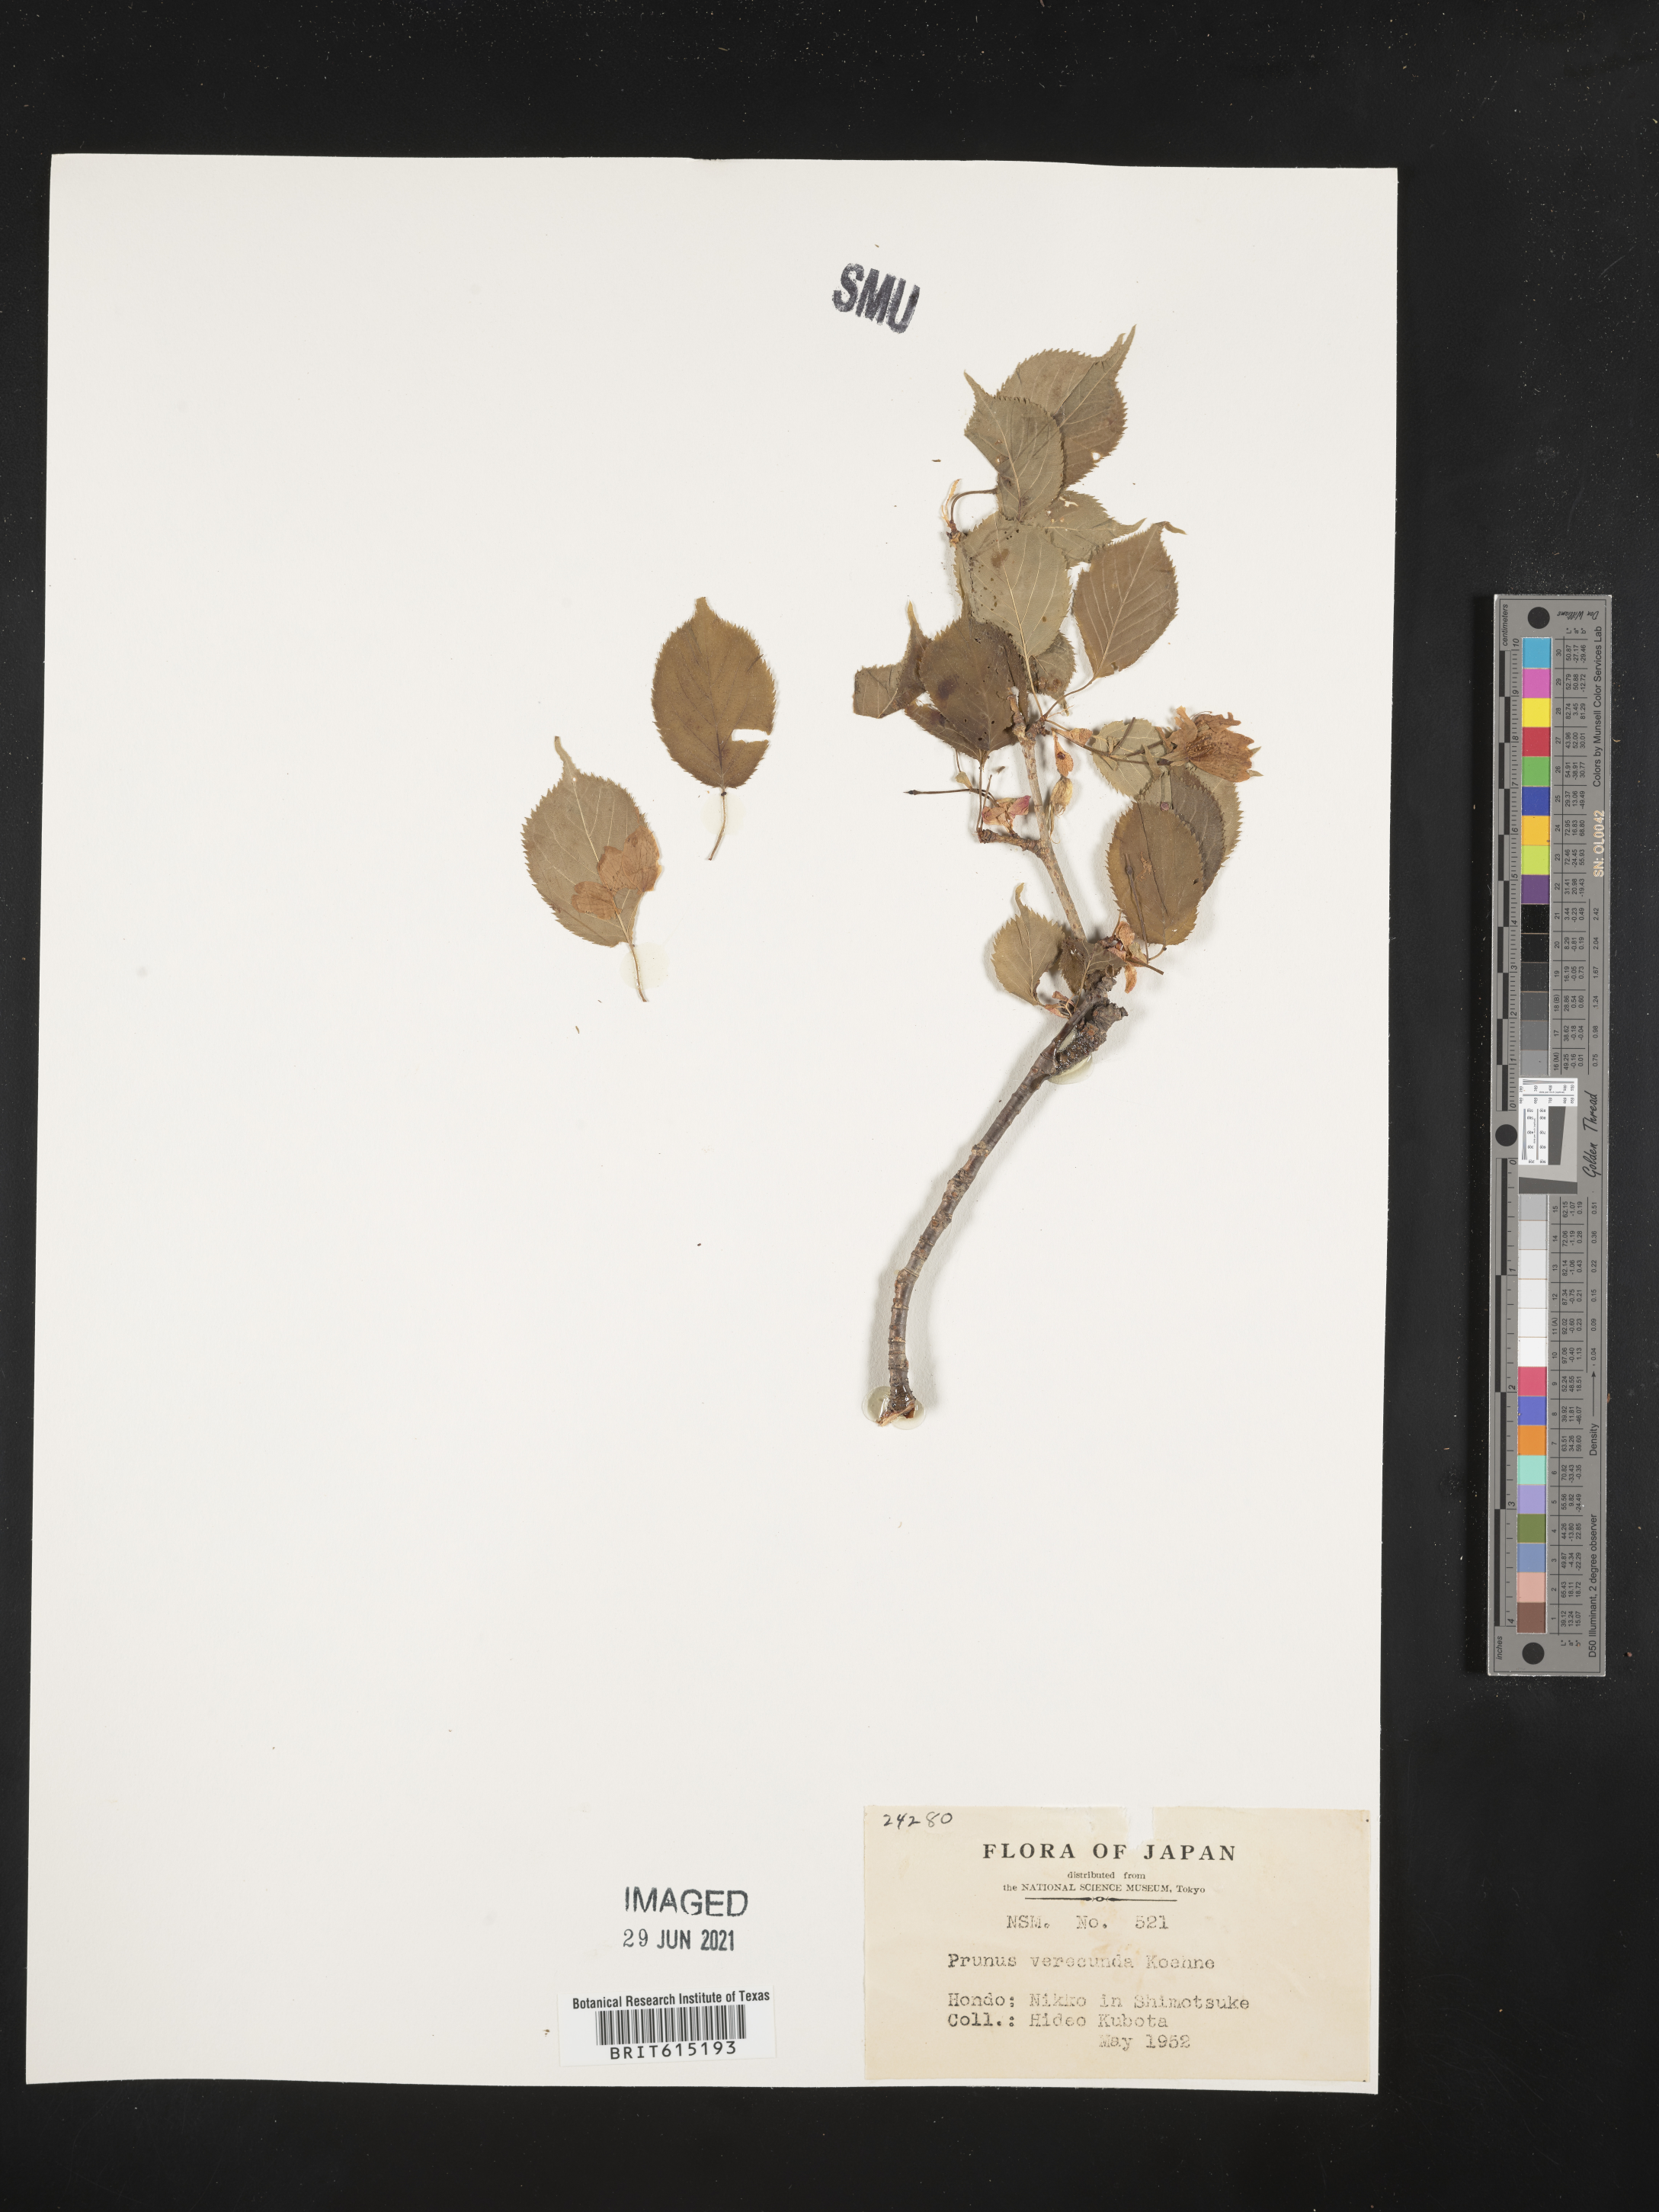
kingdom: Plantae
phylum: Tracheophyta
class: Magnoliopsida
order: Rosales
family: Rosaceae
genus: Prunus
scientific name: Prunus leveilleana
